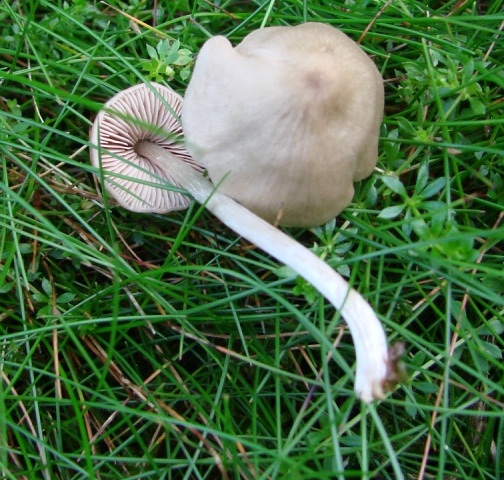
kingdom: Fungi
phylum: Basidiomycota
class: Agaricomycetes
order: Agaricales
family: Entolomataceae
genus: Entoloma
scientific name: Entoloma conferendum
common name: stjernesporet rødblad
